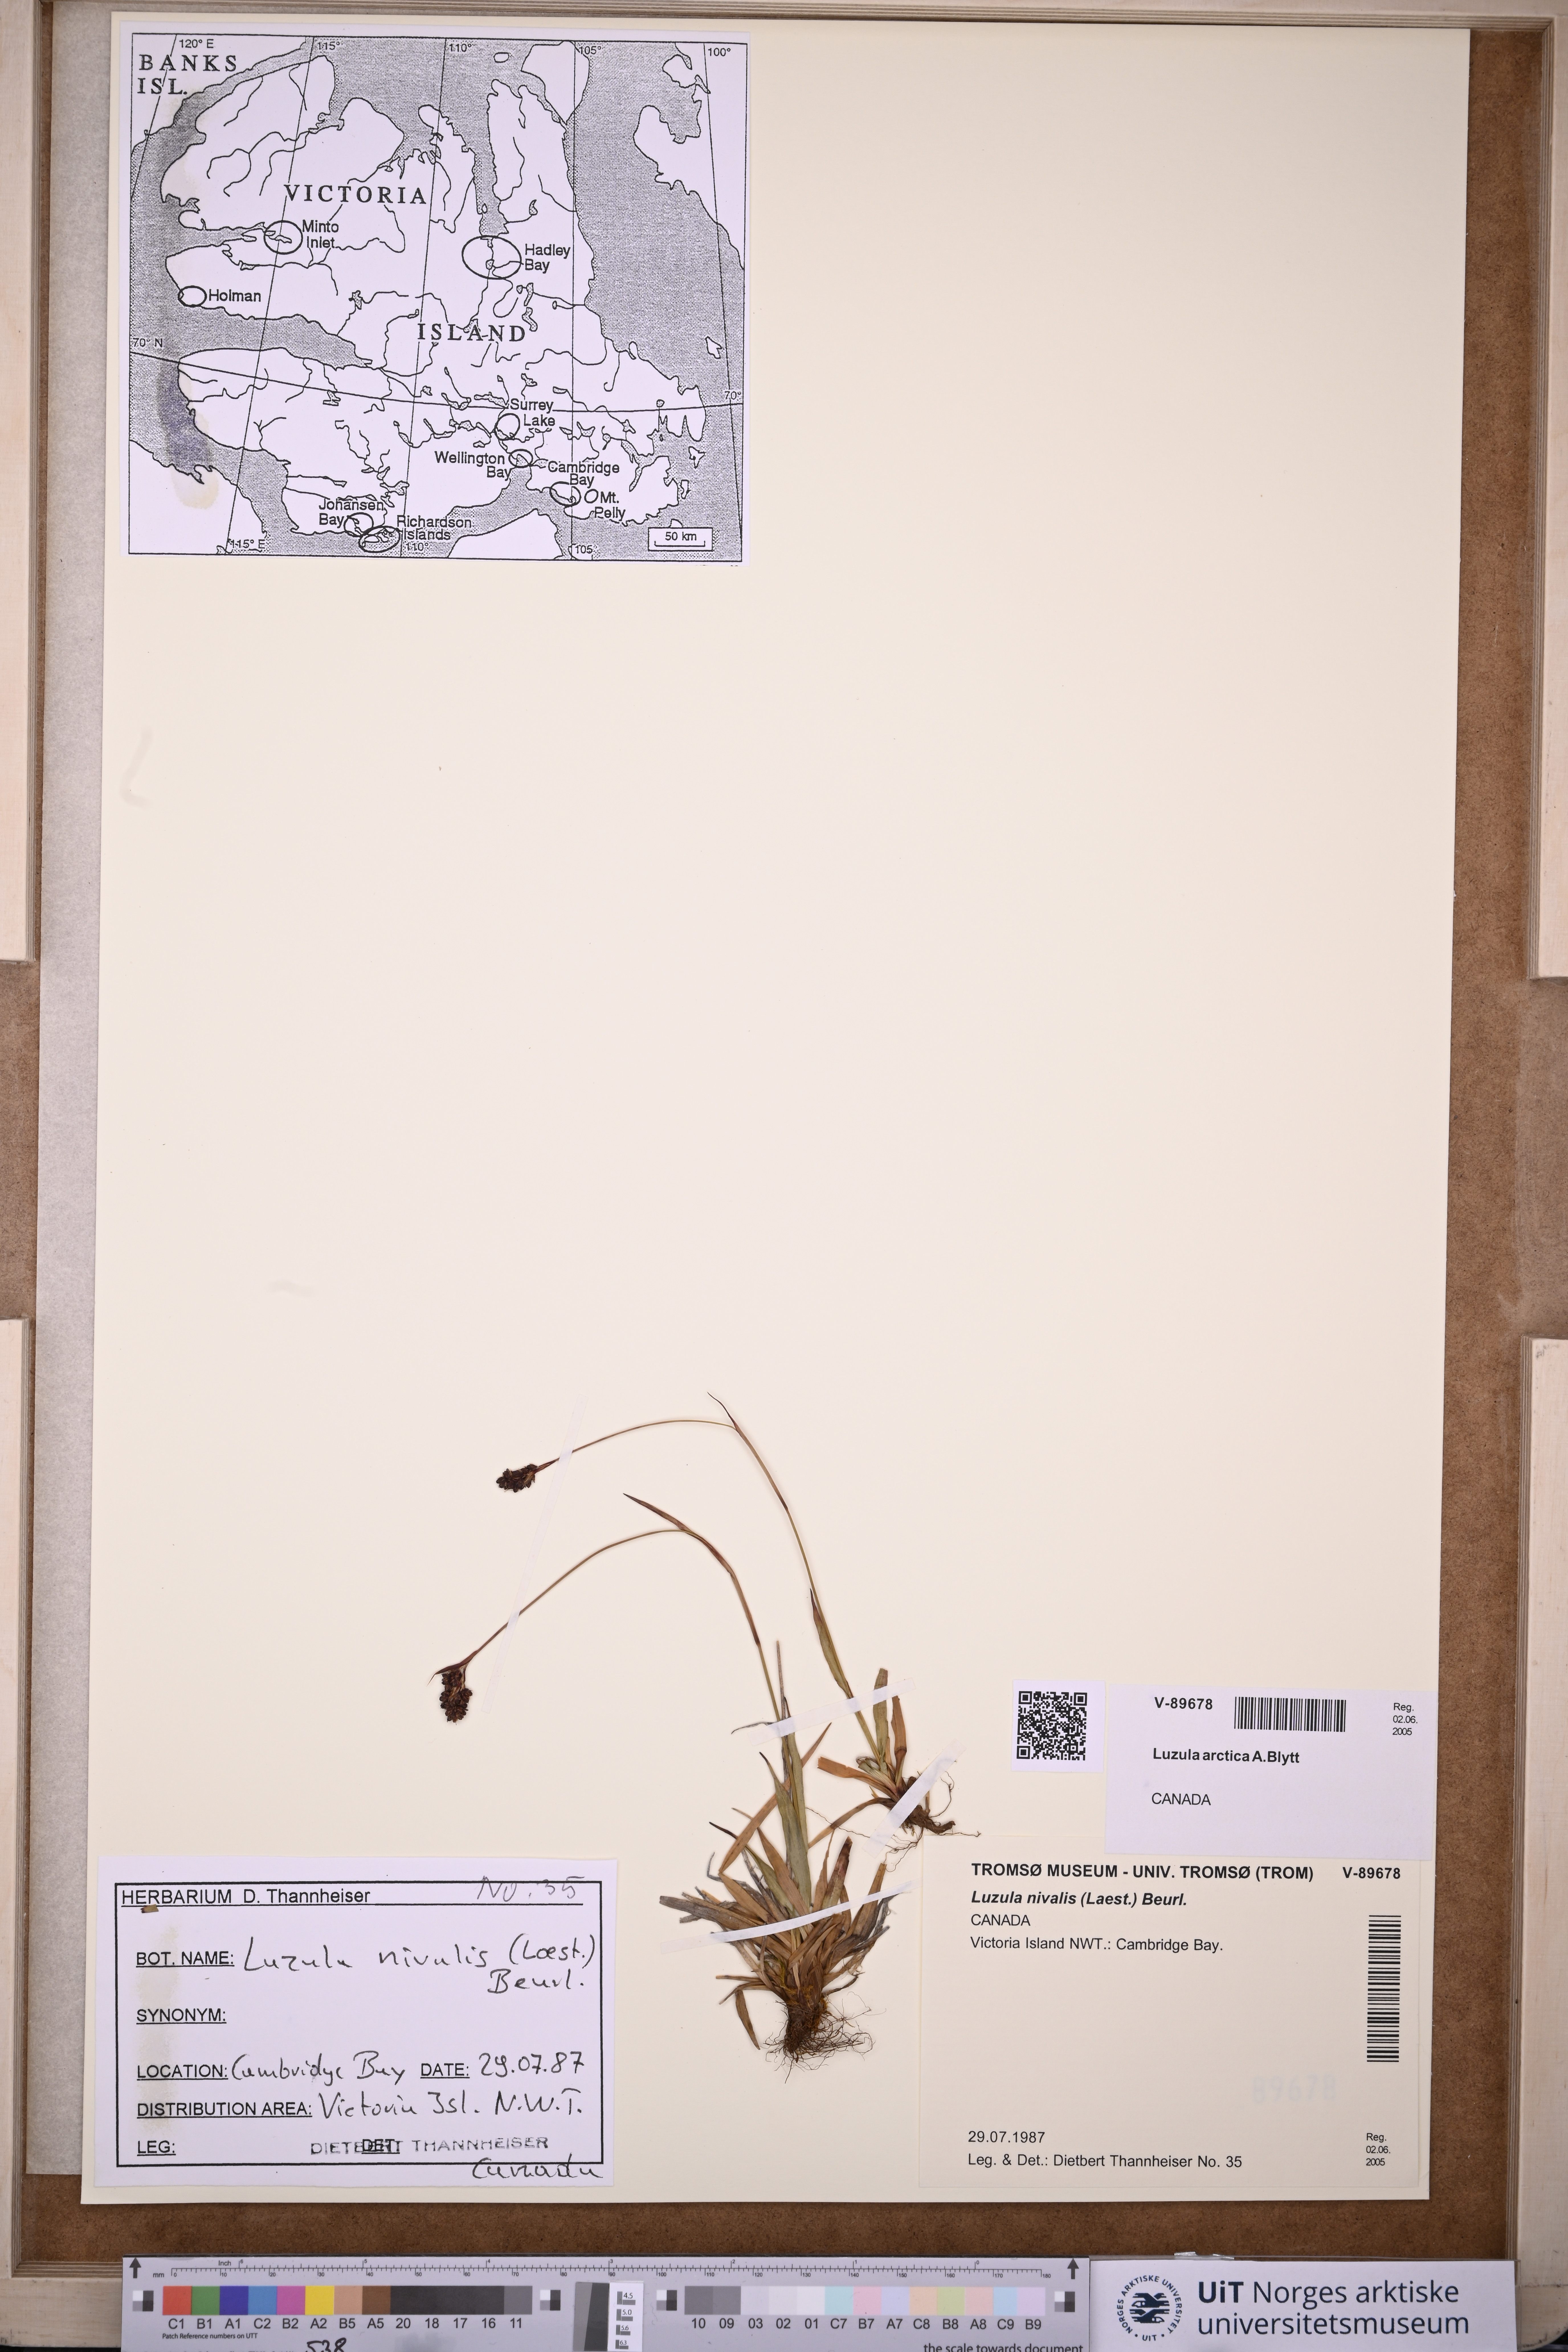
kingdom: Plantae
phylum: Tracheophyta
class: Liliopsida
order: Poales
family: Juncaceae
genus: Luzula
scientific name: Luzula nivalis
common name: Arctic woodrush
